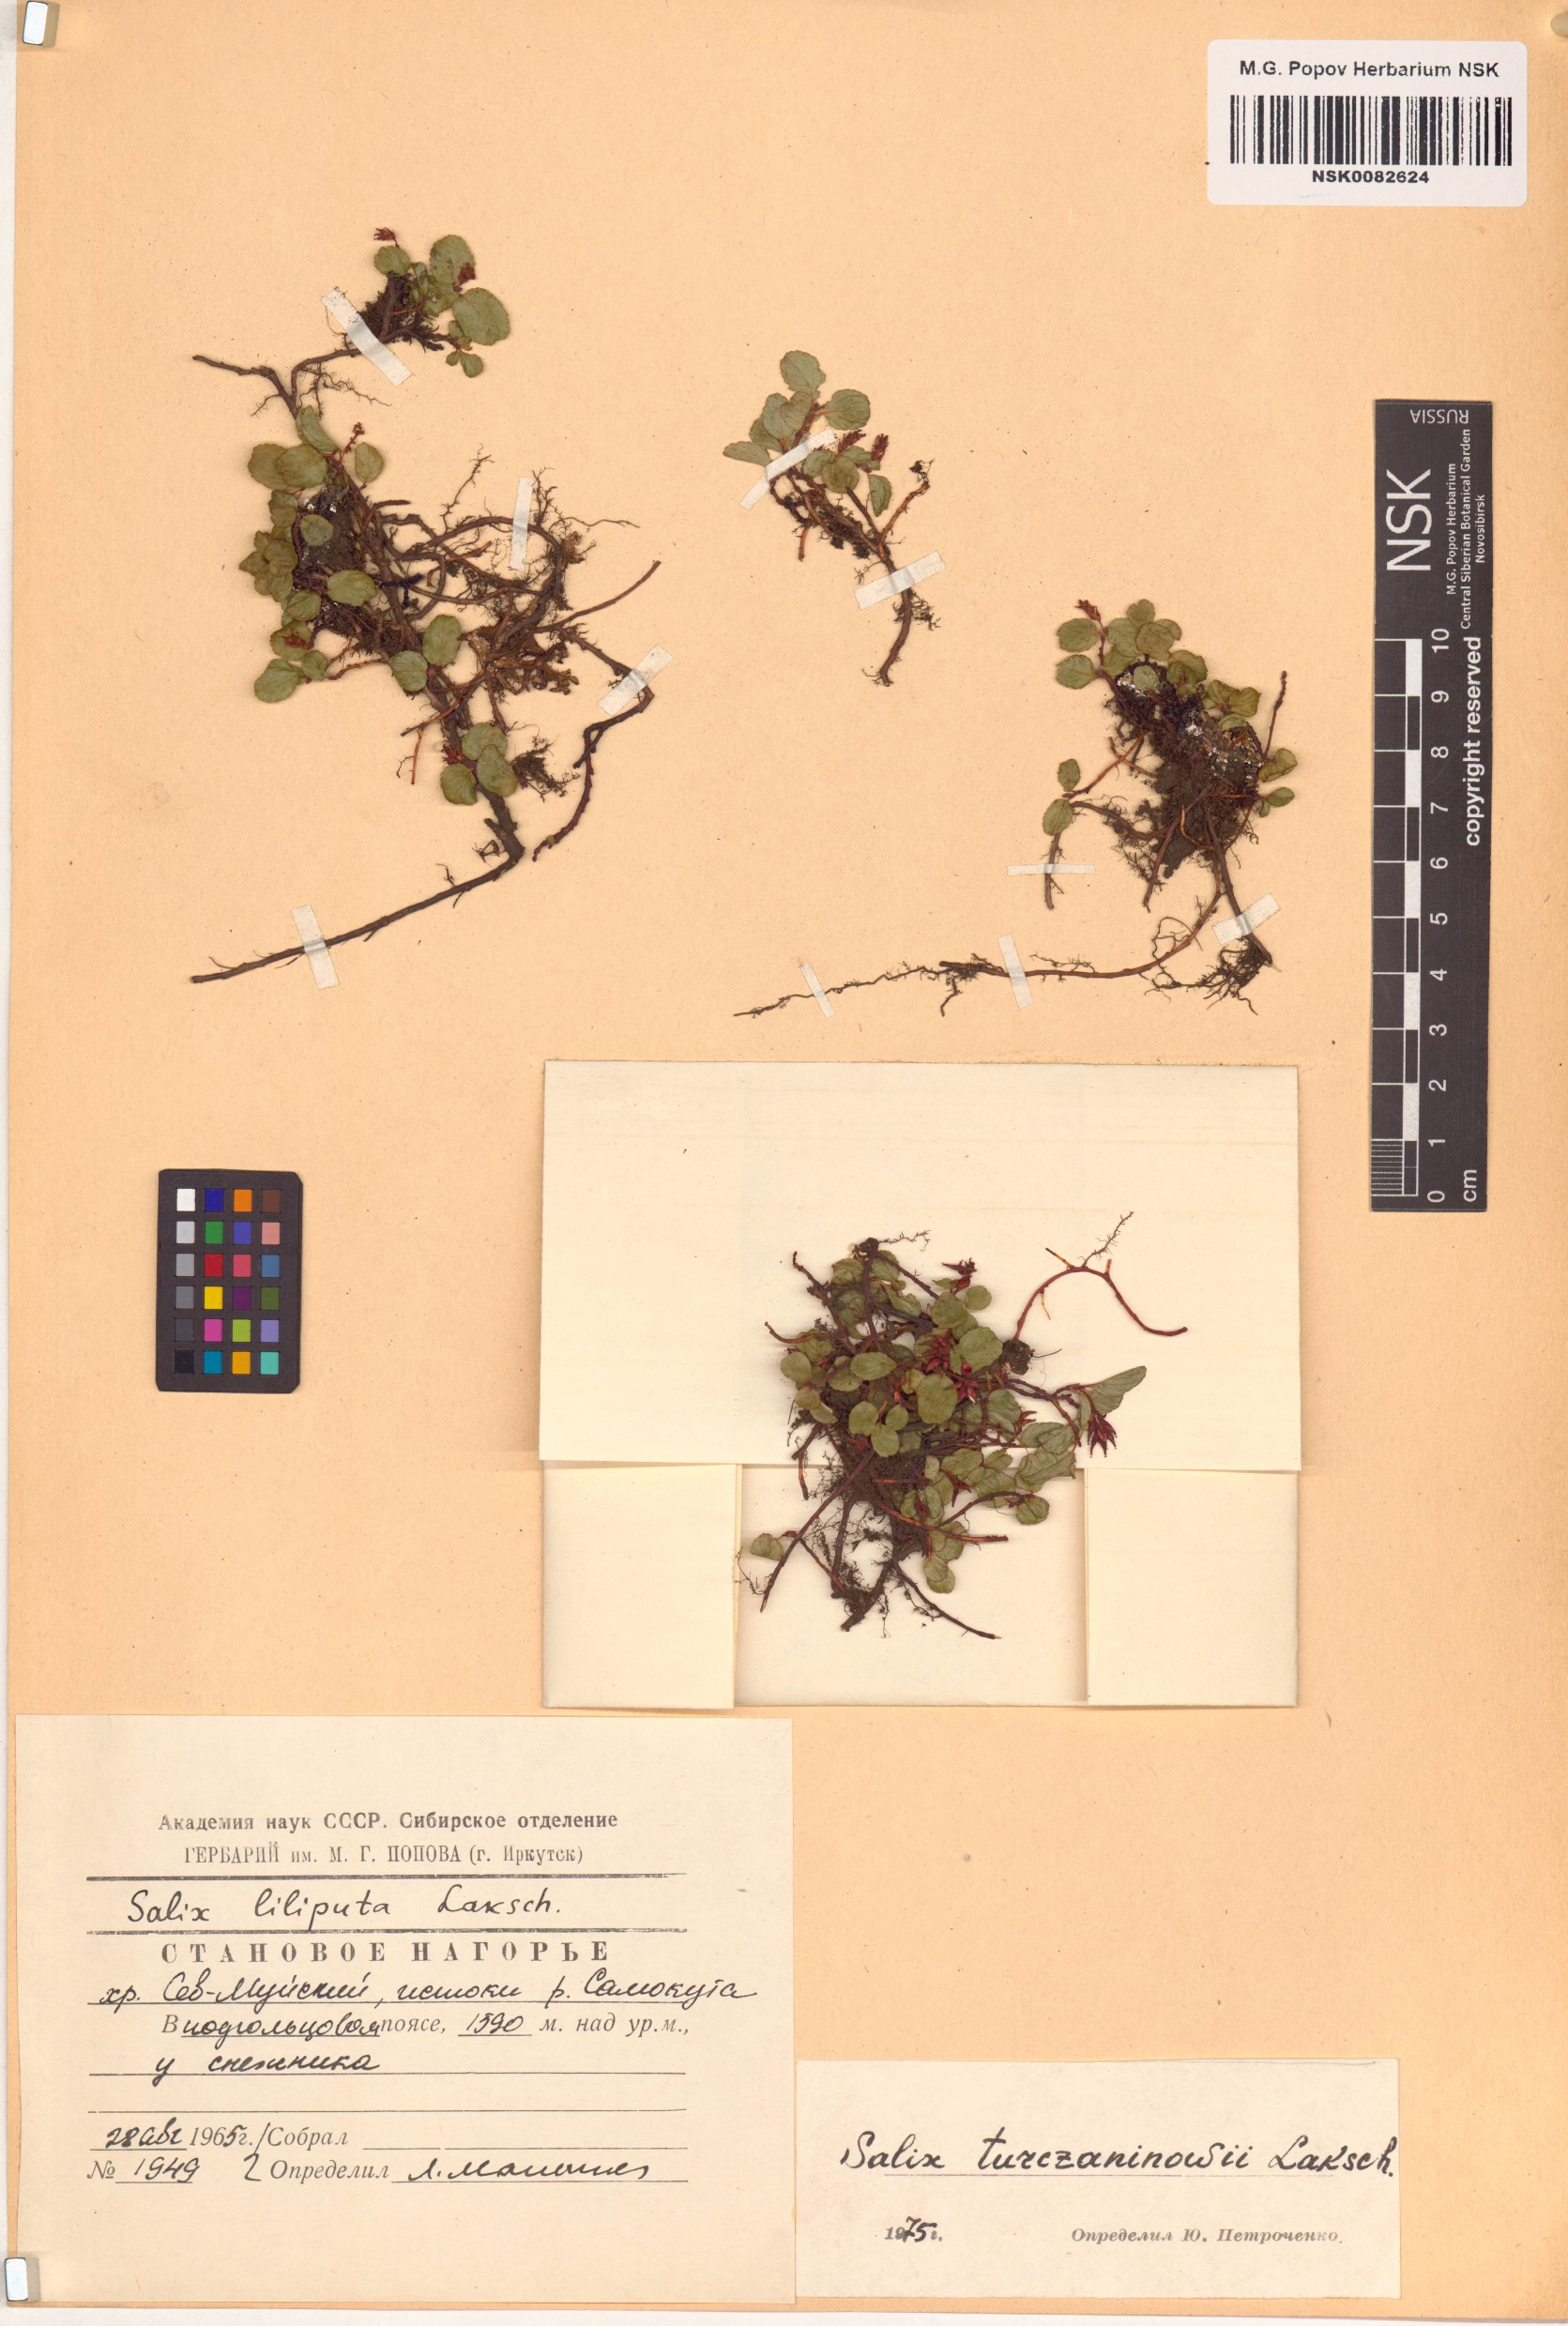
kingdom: Plantae
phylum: Tracheophyta
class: Magnoliopsida
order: Malpighiales
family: Salicaceae
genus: Salix
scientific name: Salix turczaninowii
